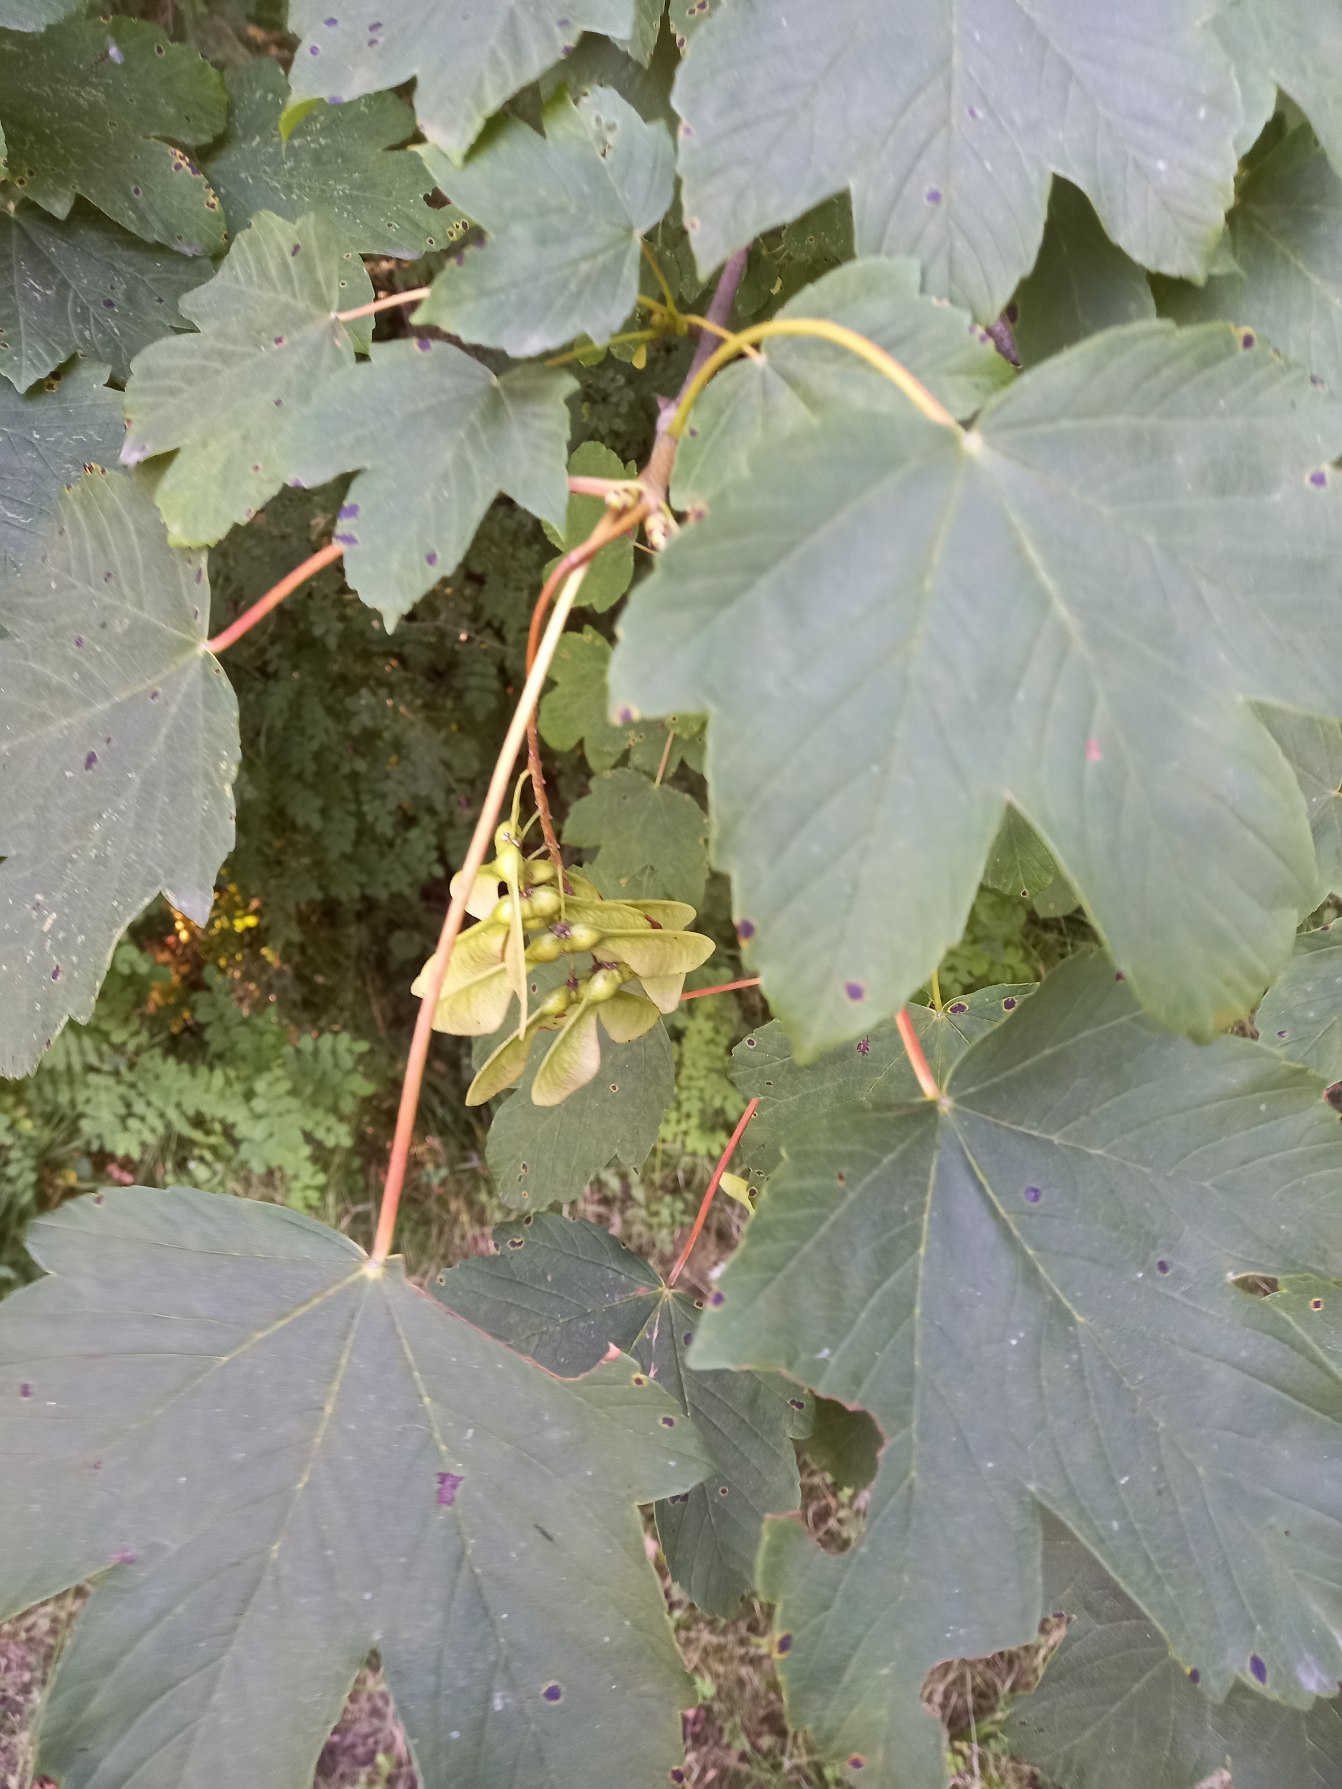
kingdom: Plantae
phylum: Tracheophyta
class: Magnoliopsida
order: Sapindales
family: Sapindaceae
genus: Acer
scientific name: Acer pseudoplatanus
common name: Ahorn
